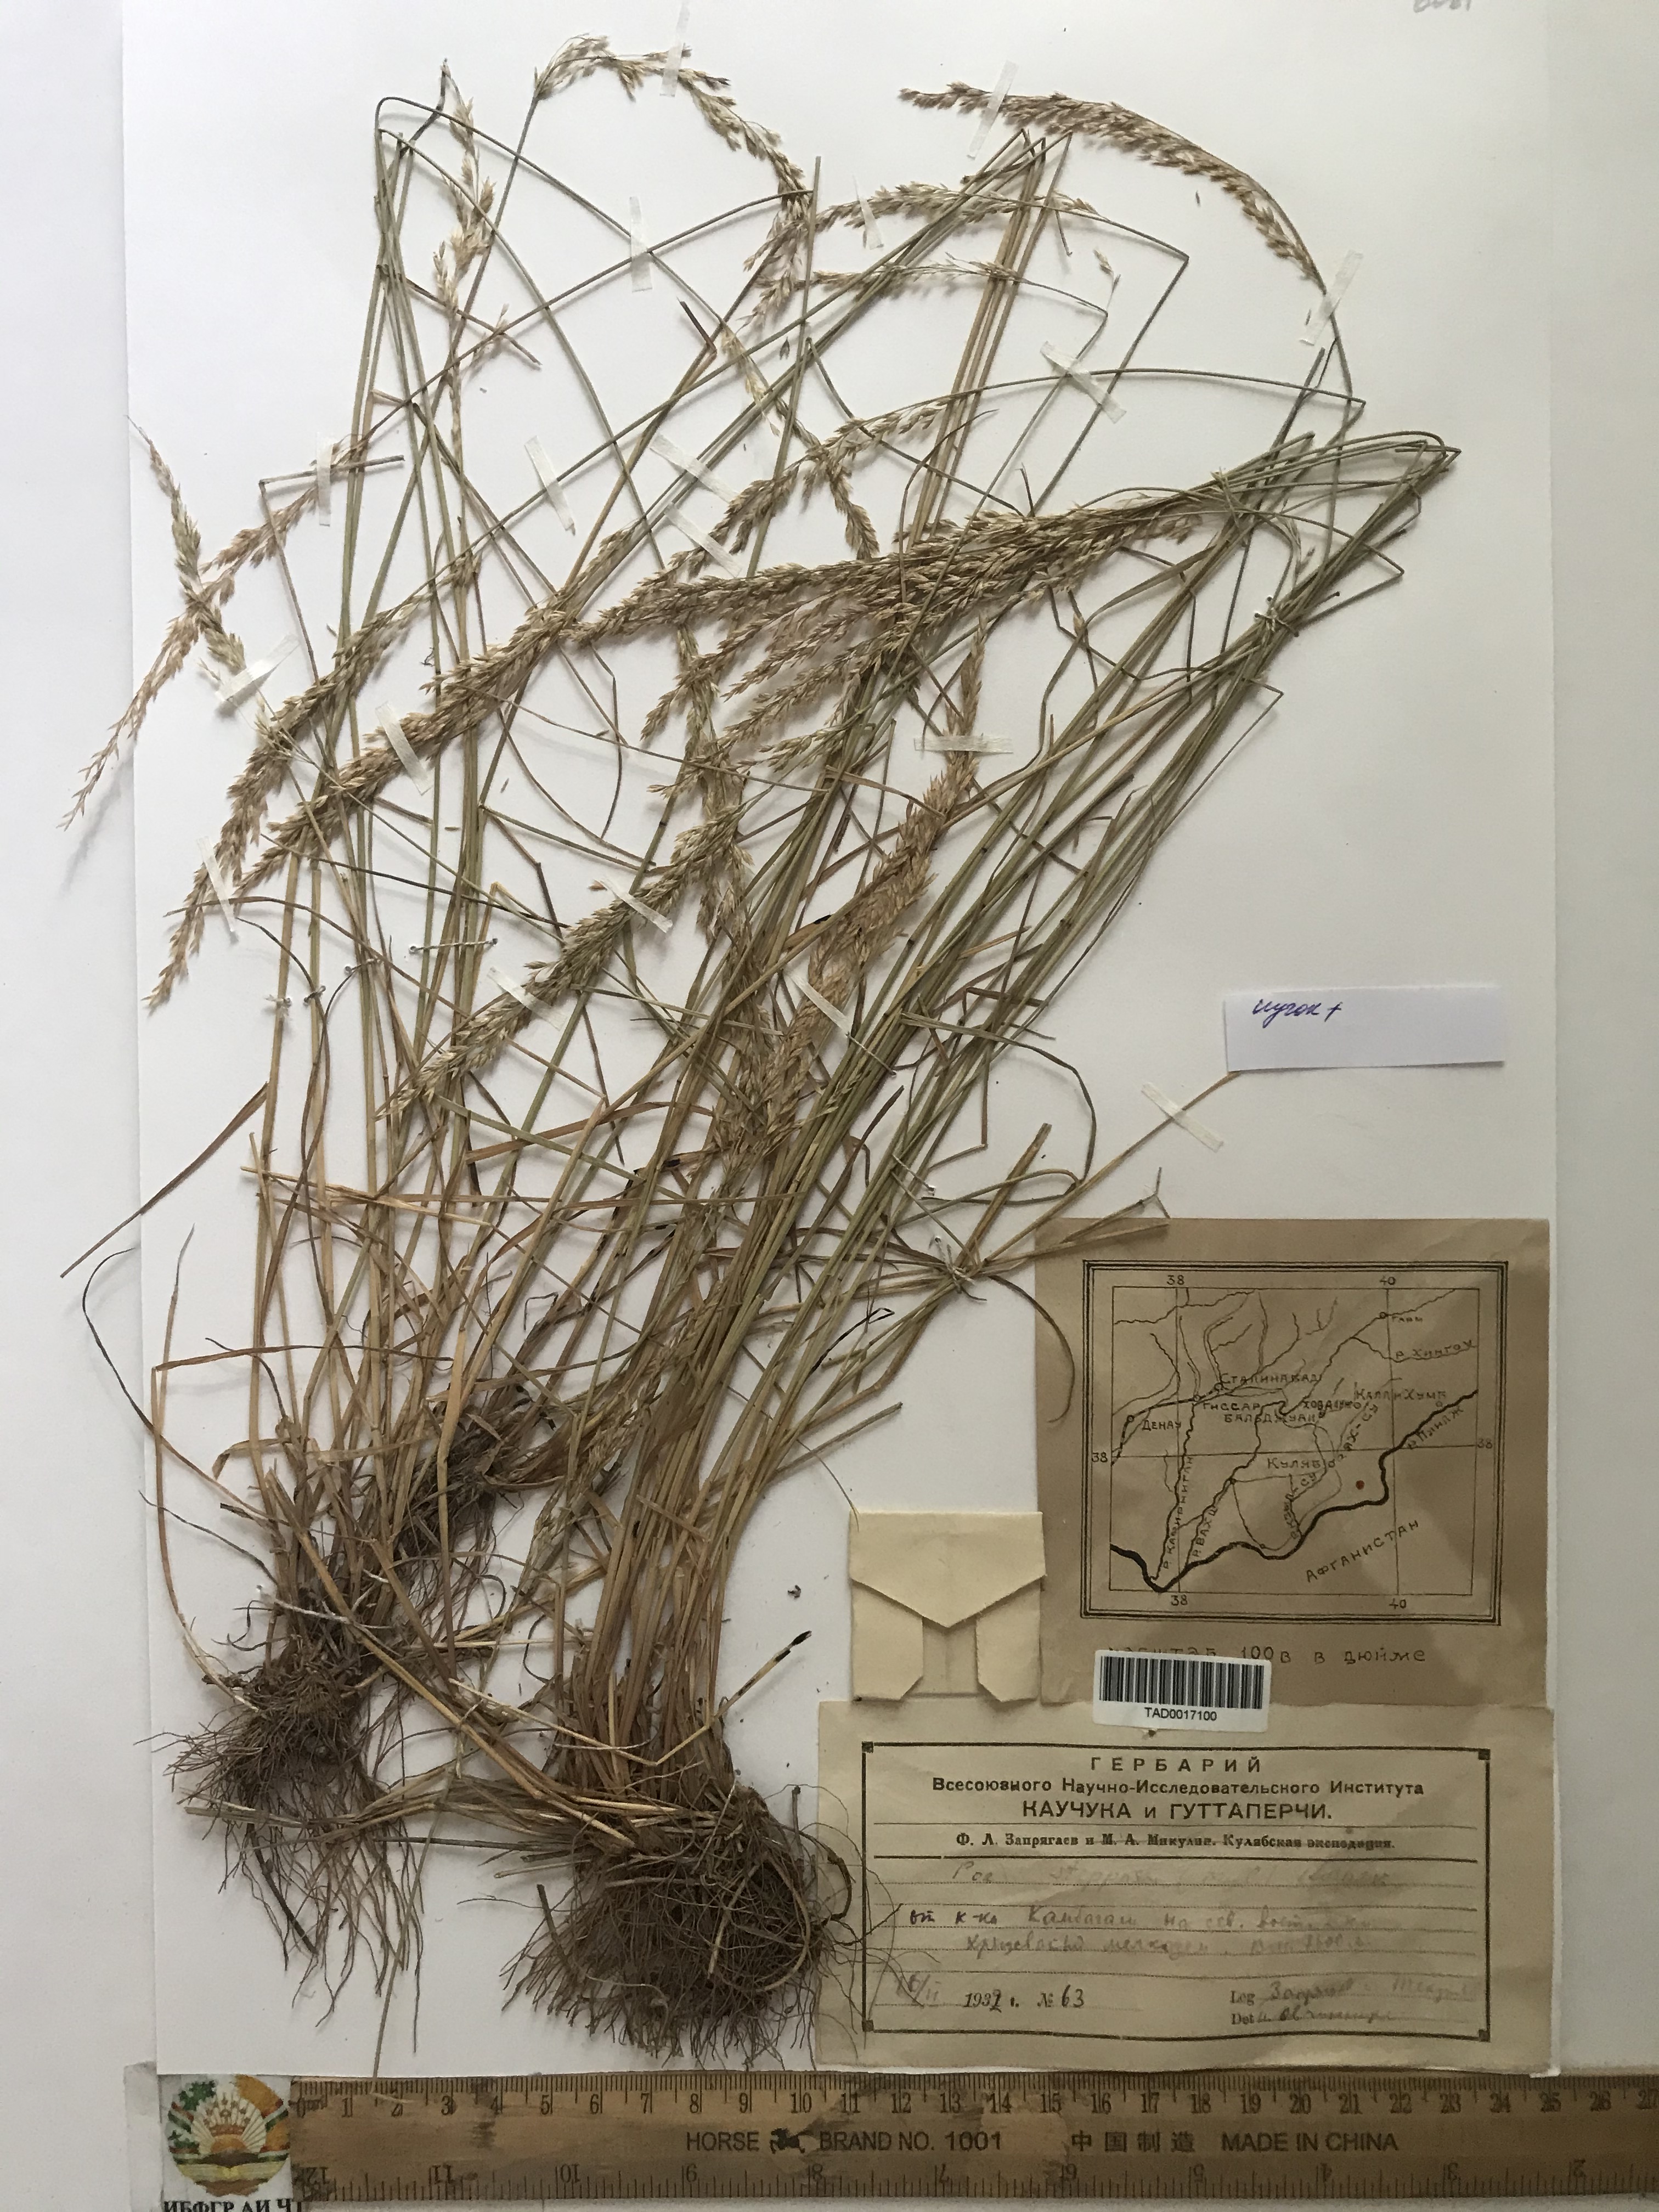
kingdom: Plantae
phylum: Tracheophyta
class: Liliopsida
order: Poales
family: Poaceae
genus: Poa
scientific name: Poa urssulensis
